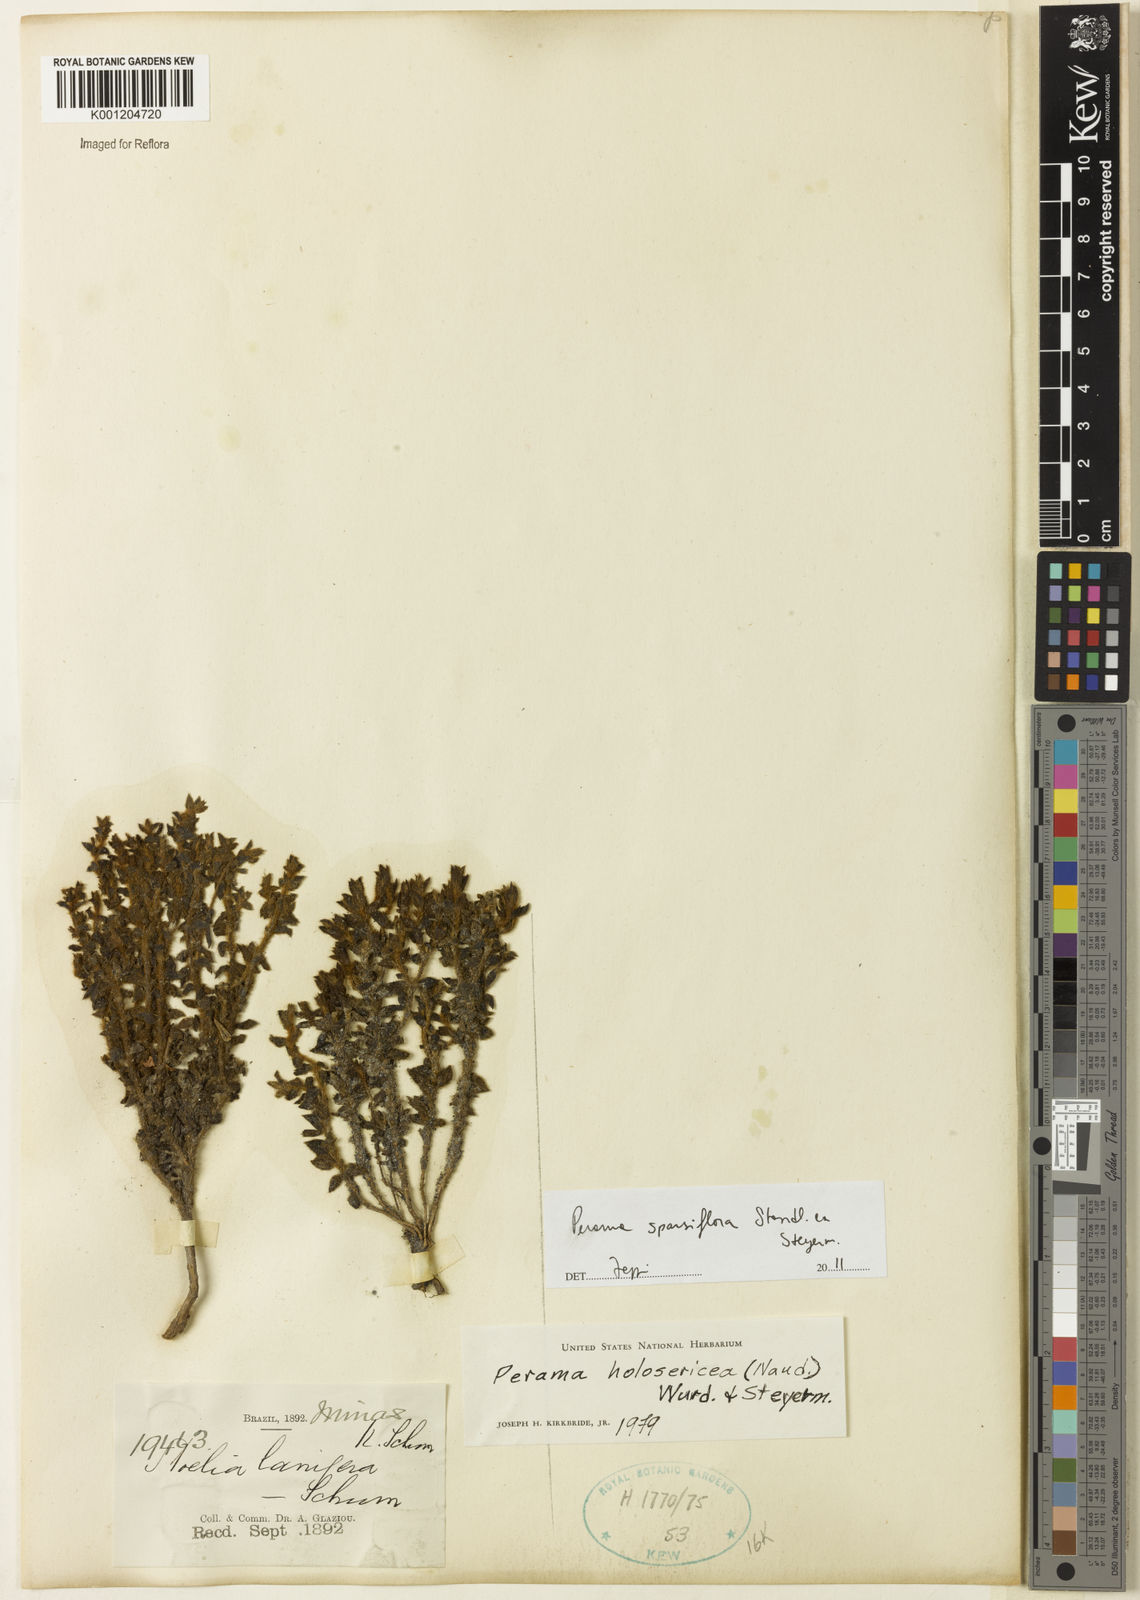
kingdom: Plantae
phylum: Tracheophyta
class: Magnoliopsida
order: Gentianales
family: Rubiaceae
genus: Perama
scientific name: Perama sparsiflora
